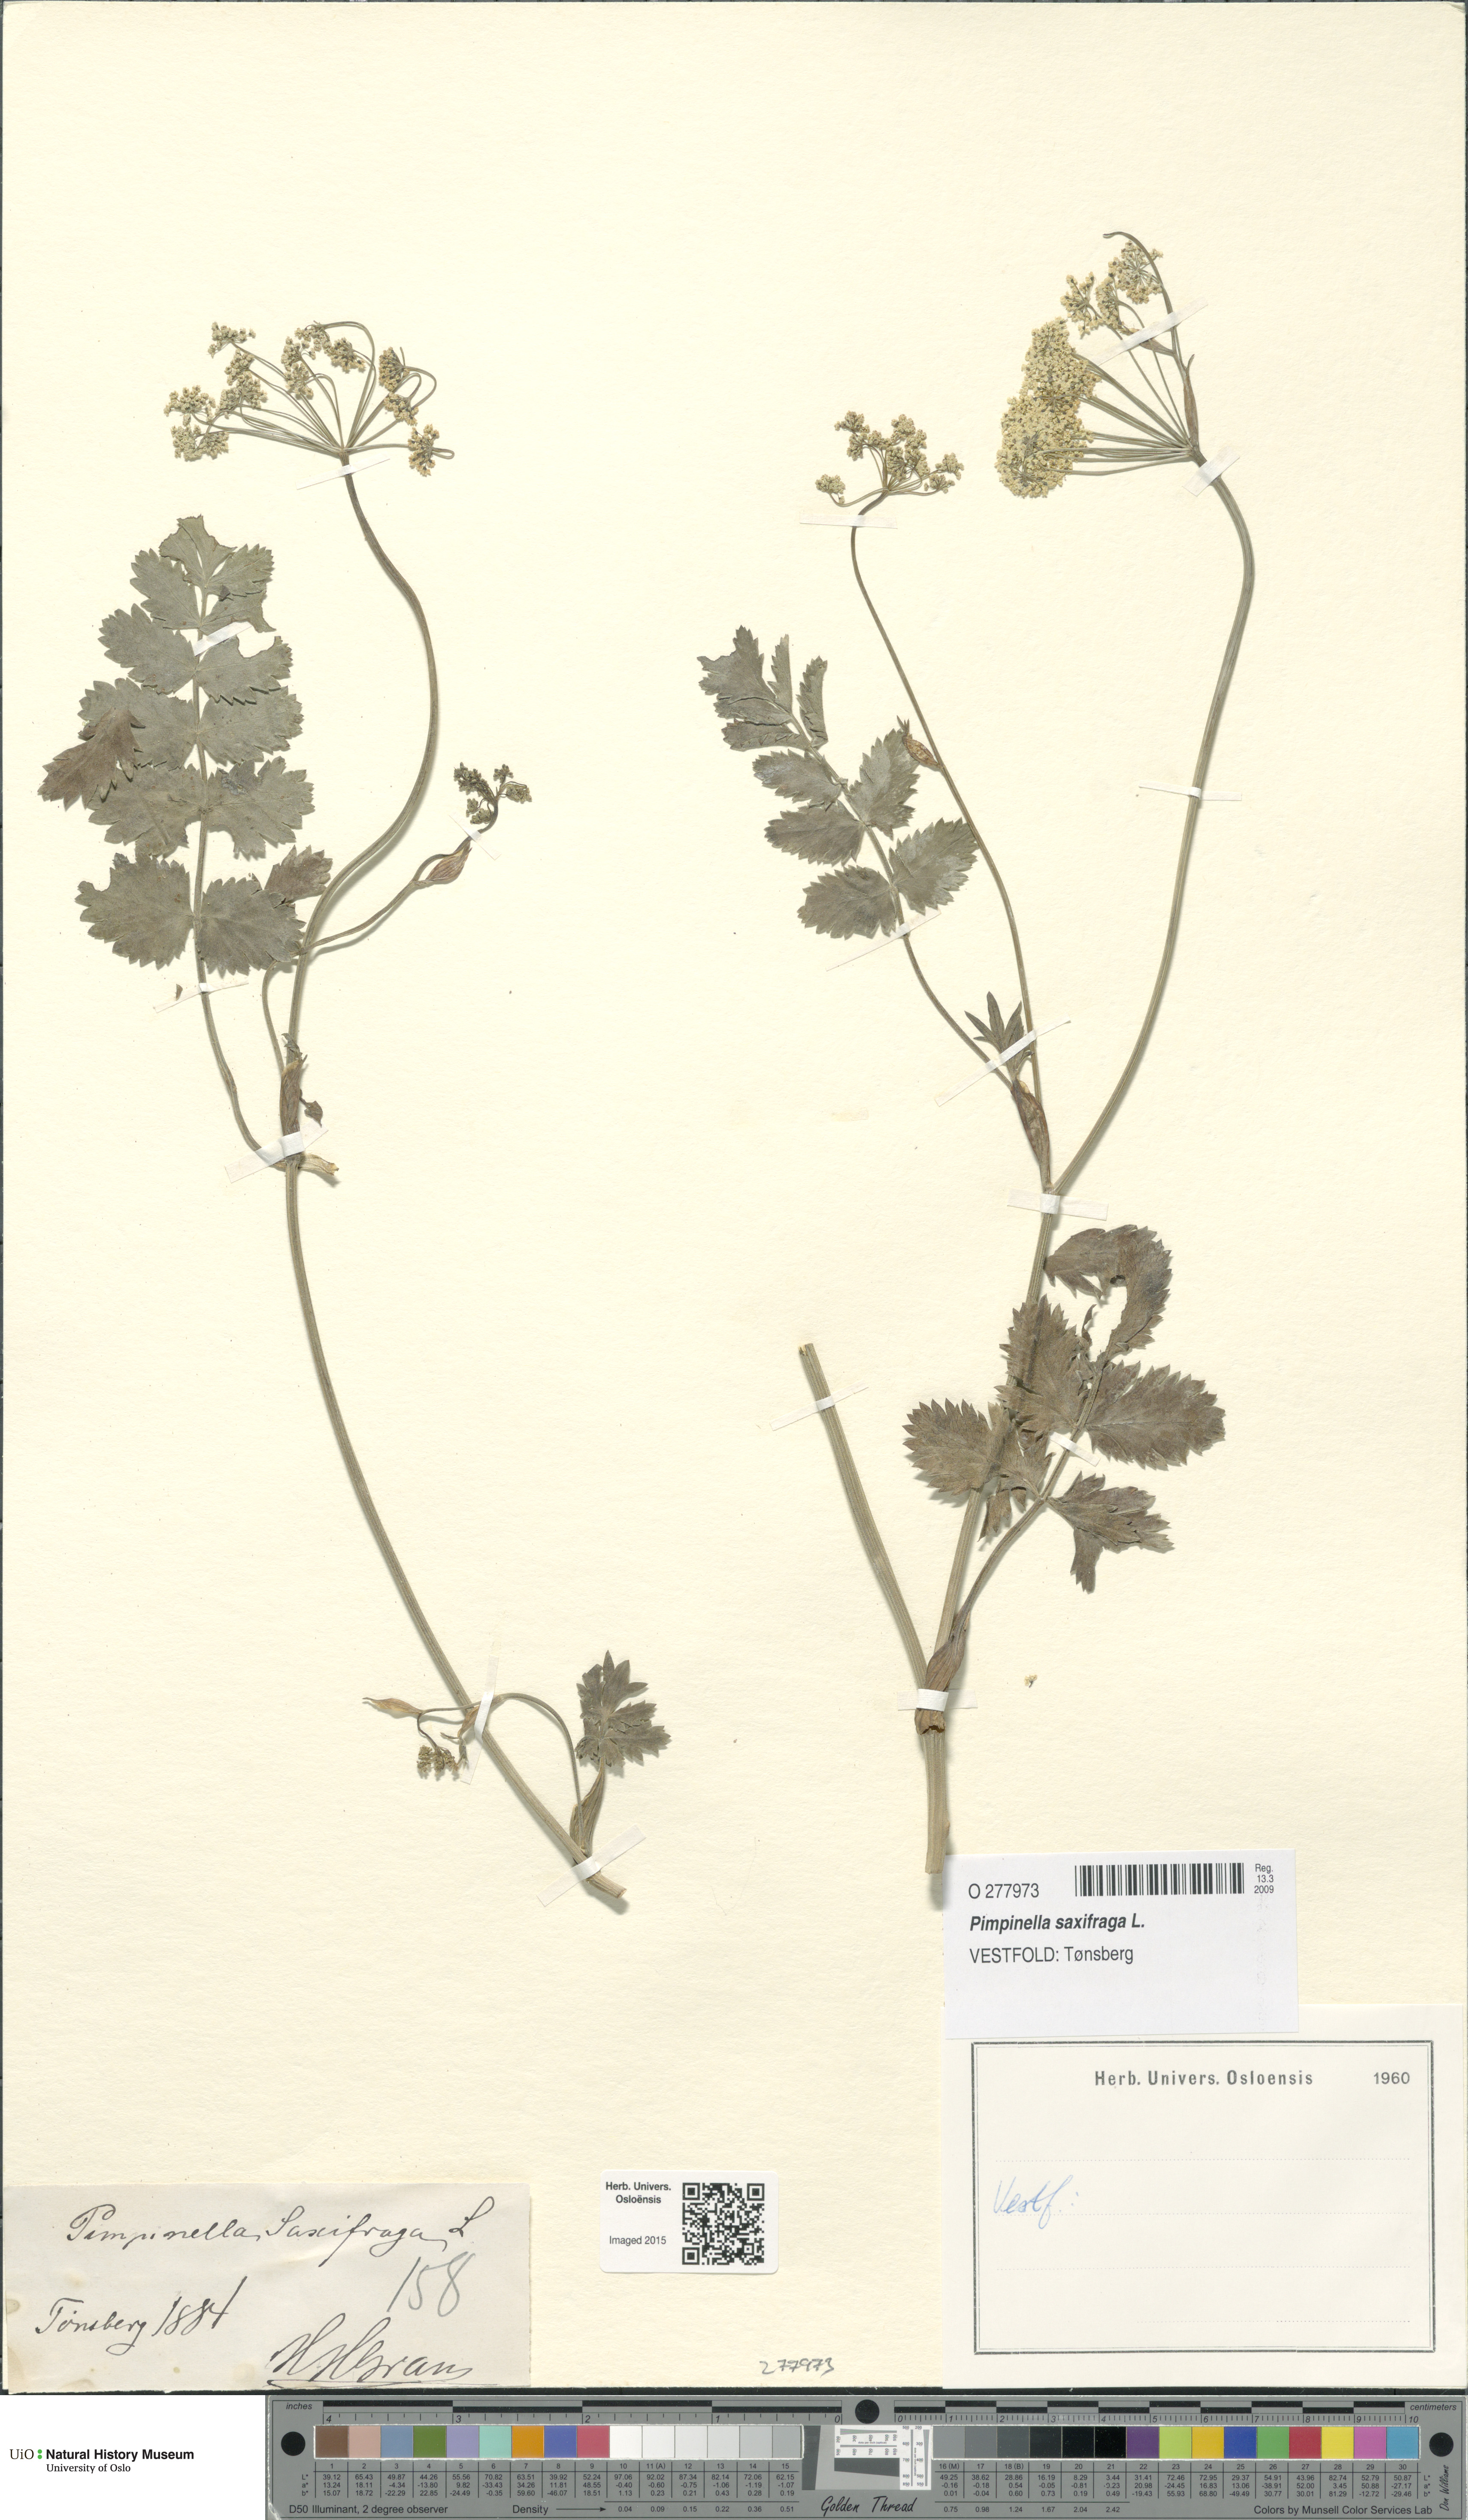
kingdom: Plantae
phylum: Tracheophyta
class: Magnoliopsida
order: Apiales
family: Apiaceae
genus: Pimpinella
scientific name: Pimpinella saxifraga
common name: Burnet-saxifrage
